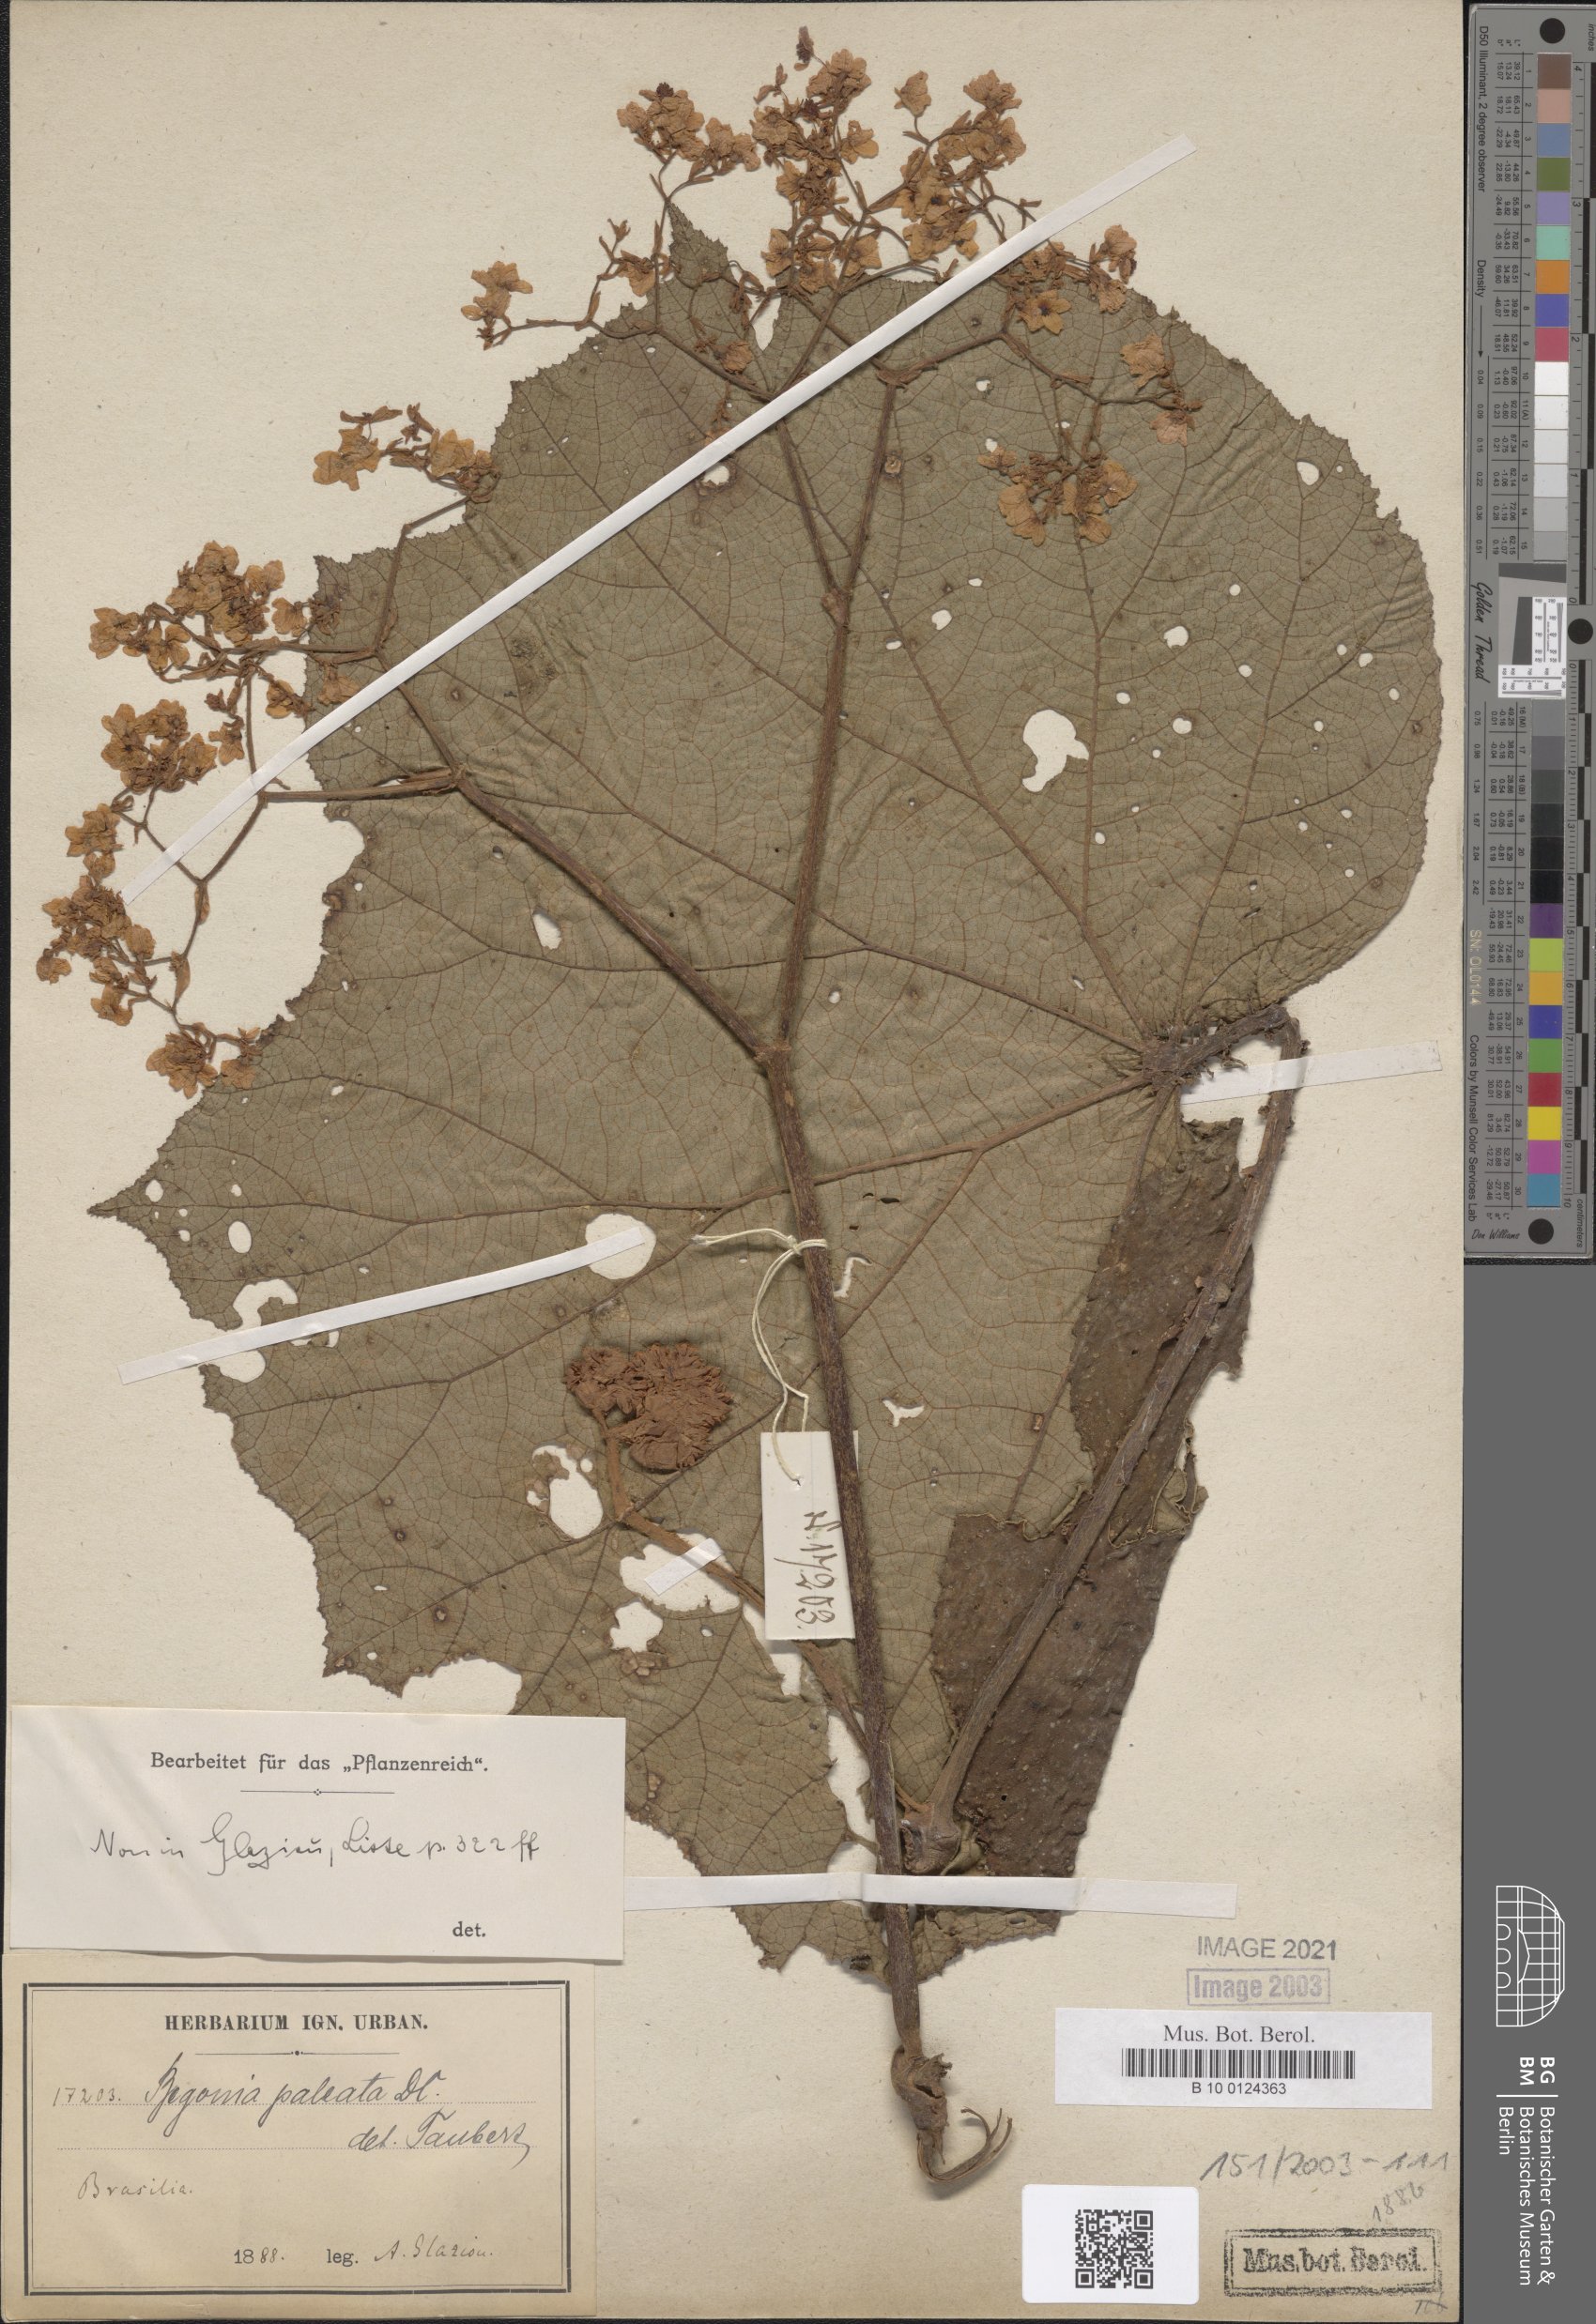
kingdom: Plantae
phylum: Tracheophyta
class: Magnoliopsida
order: Cucurbitales
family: Begoniaceae
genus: Begonia
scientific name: Begonia paleata
